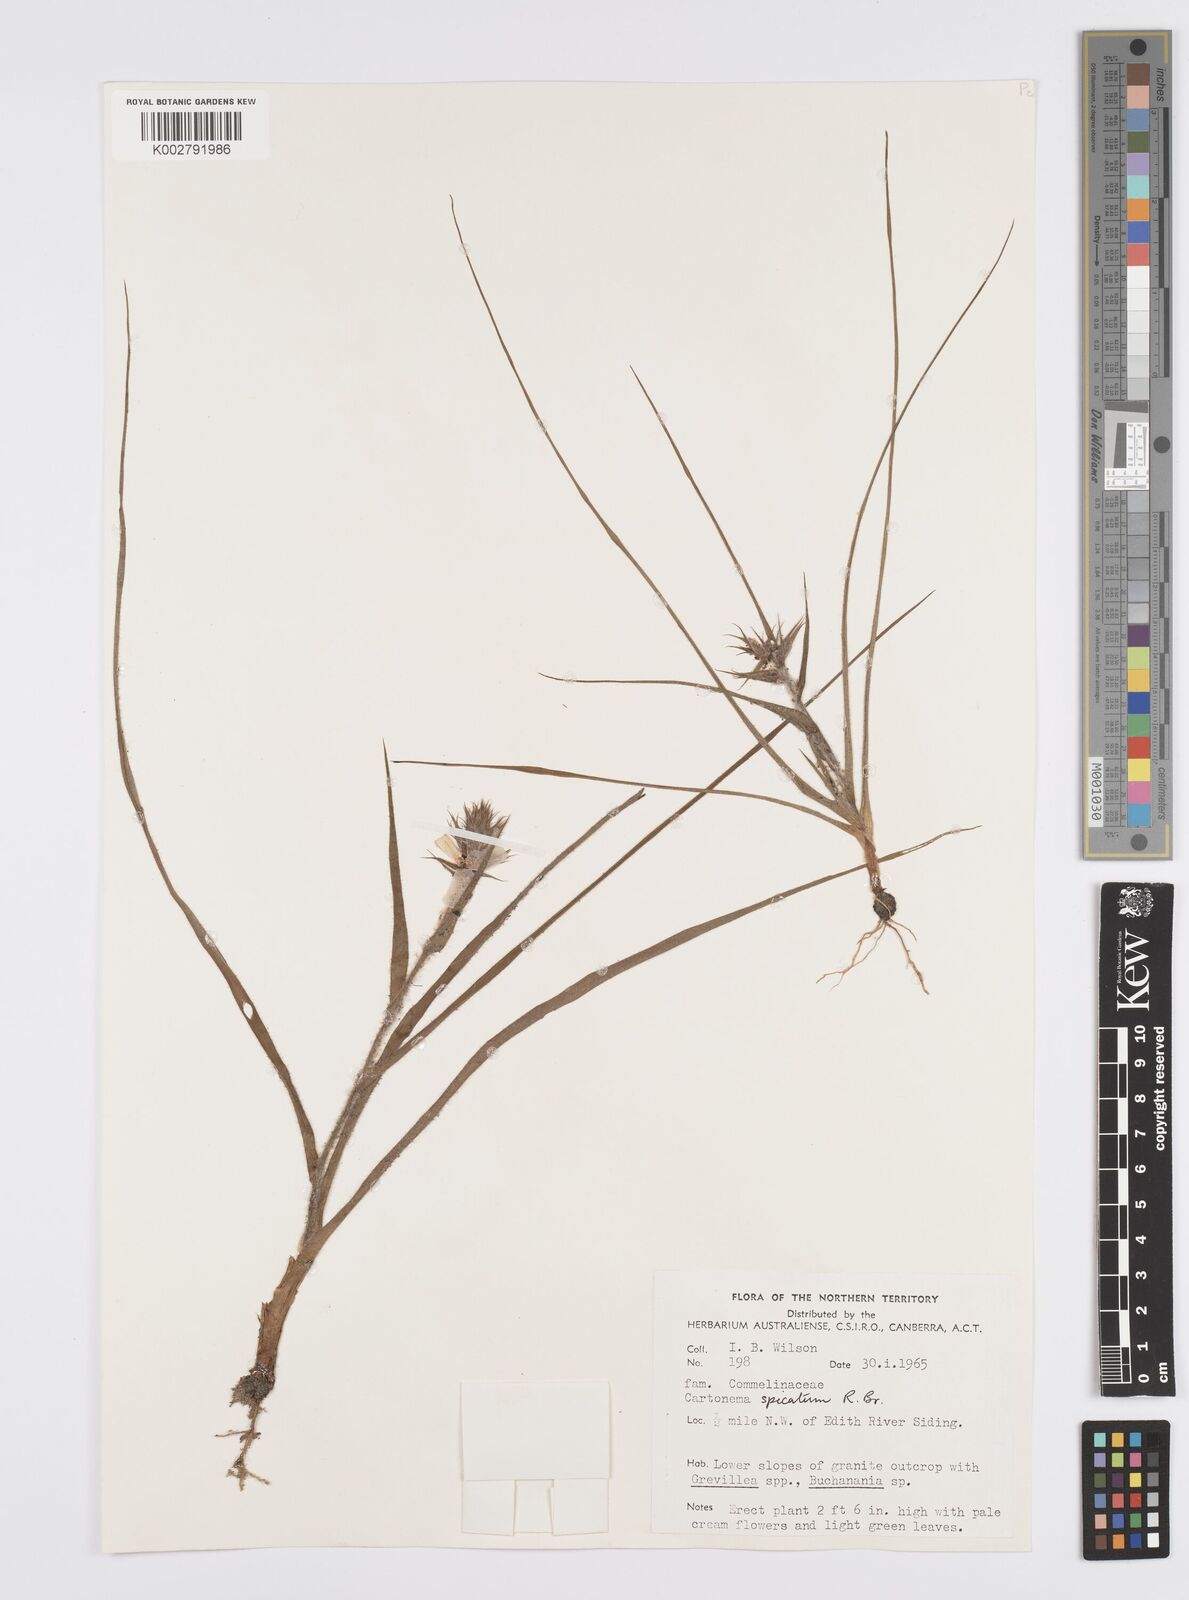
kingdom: Plantae
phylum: Tracheophyta
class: Liliopsida
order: Commelinales
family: Commelinaceae
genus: Cartonema
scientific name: Cartonema spicatum
